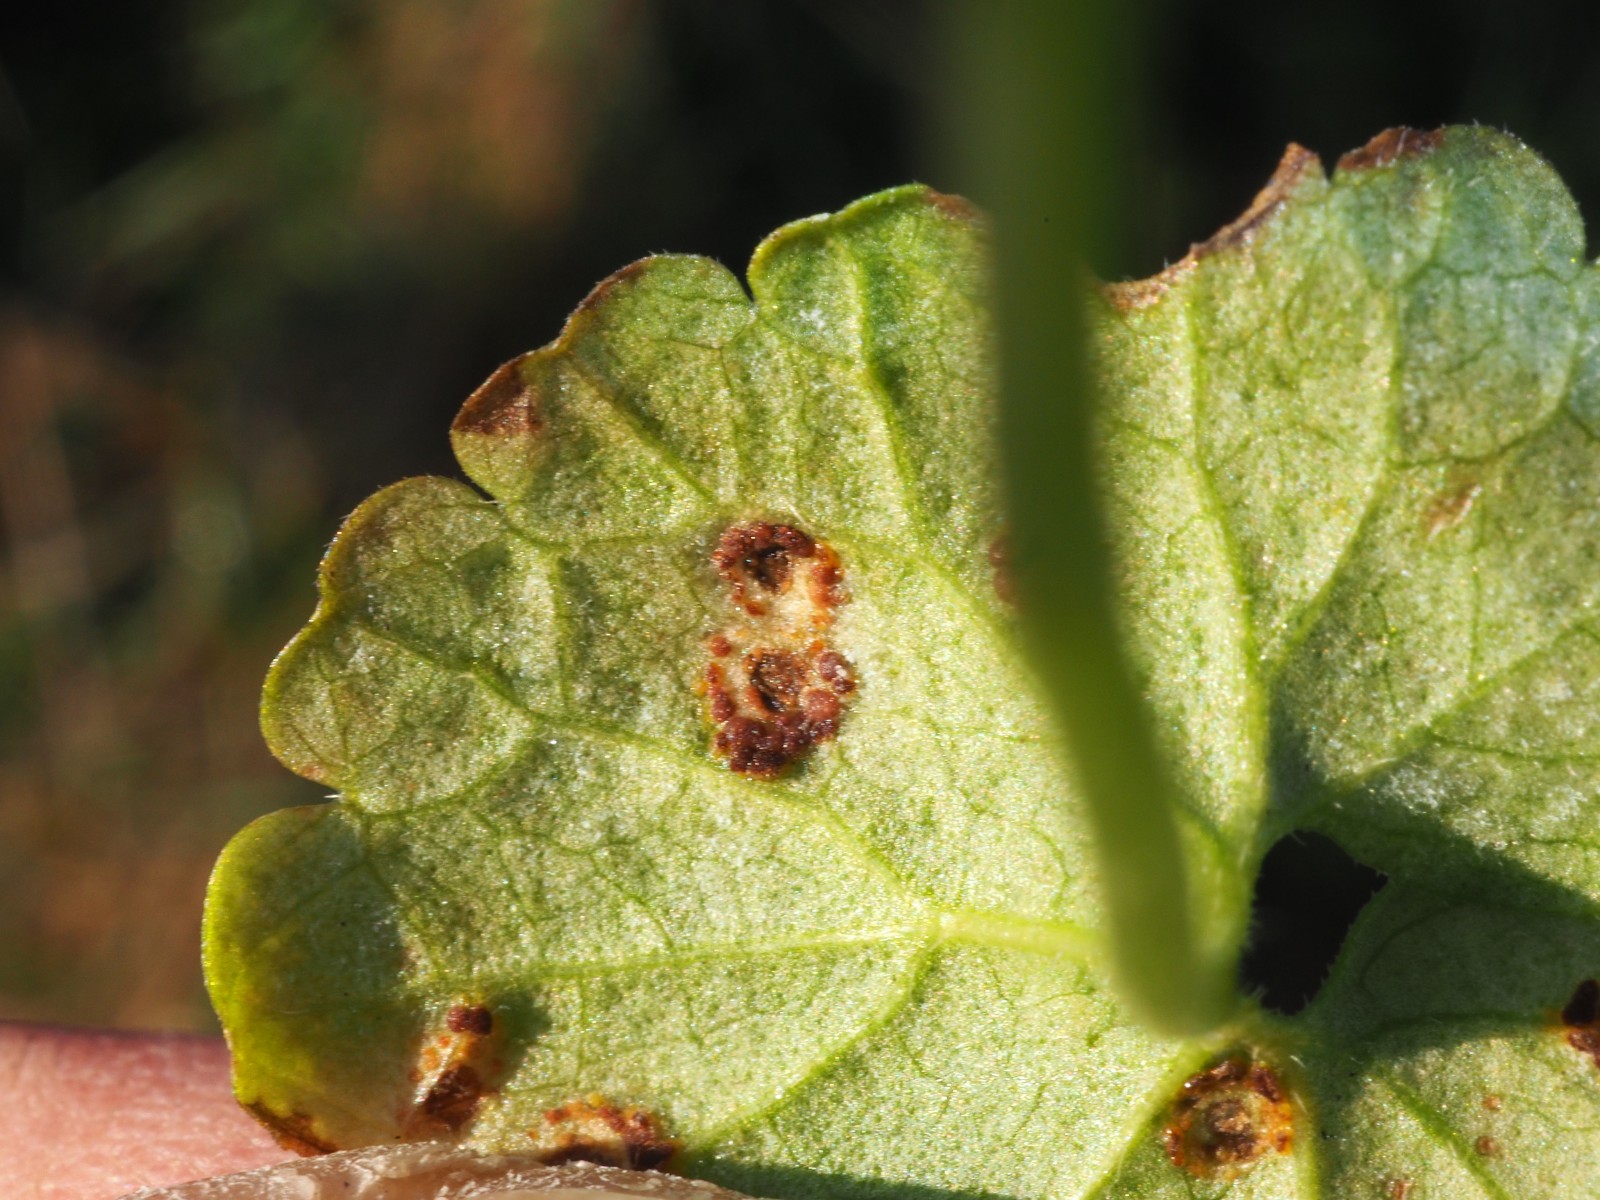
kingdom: Fungi
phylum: Basidiomycota
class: Pucciniomycetes
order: Pucciniales
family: Pucciniaceae
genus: Puccinia
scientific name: Puccinia glechomatis
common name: Ground ivy rust
